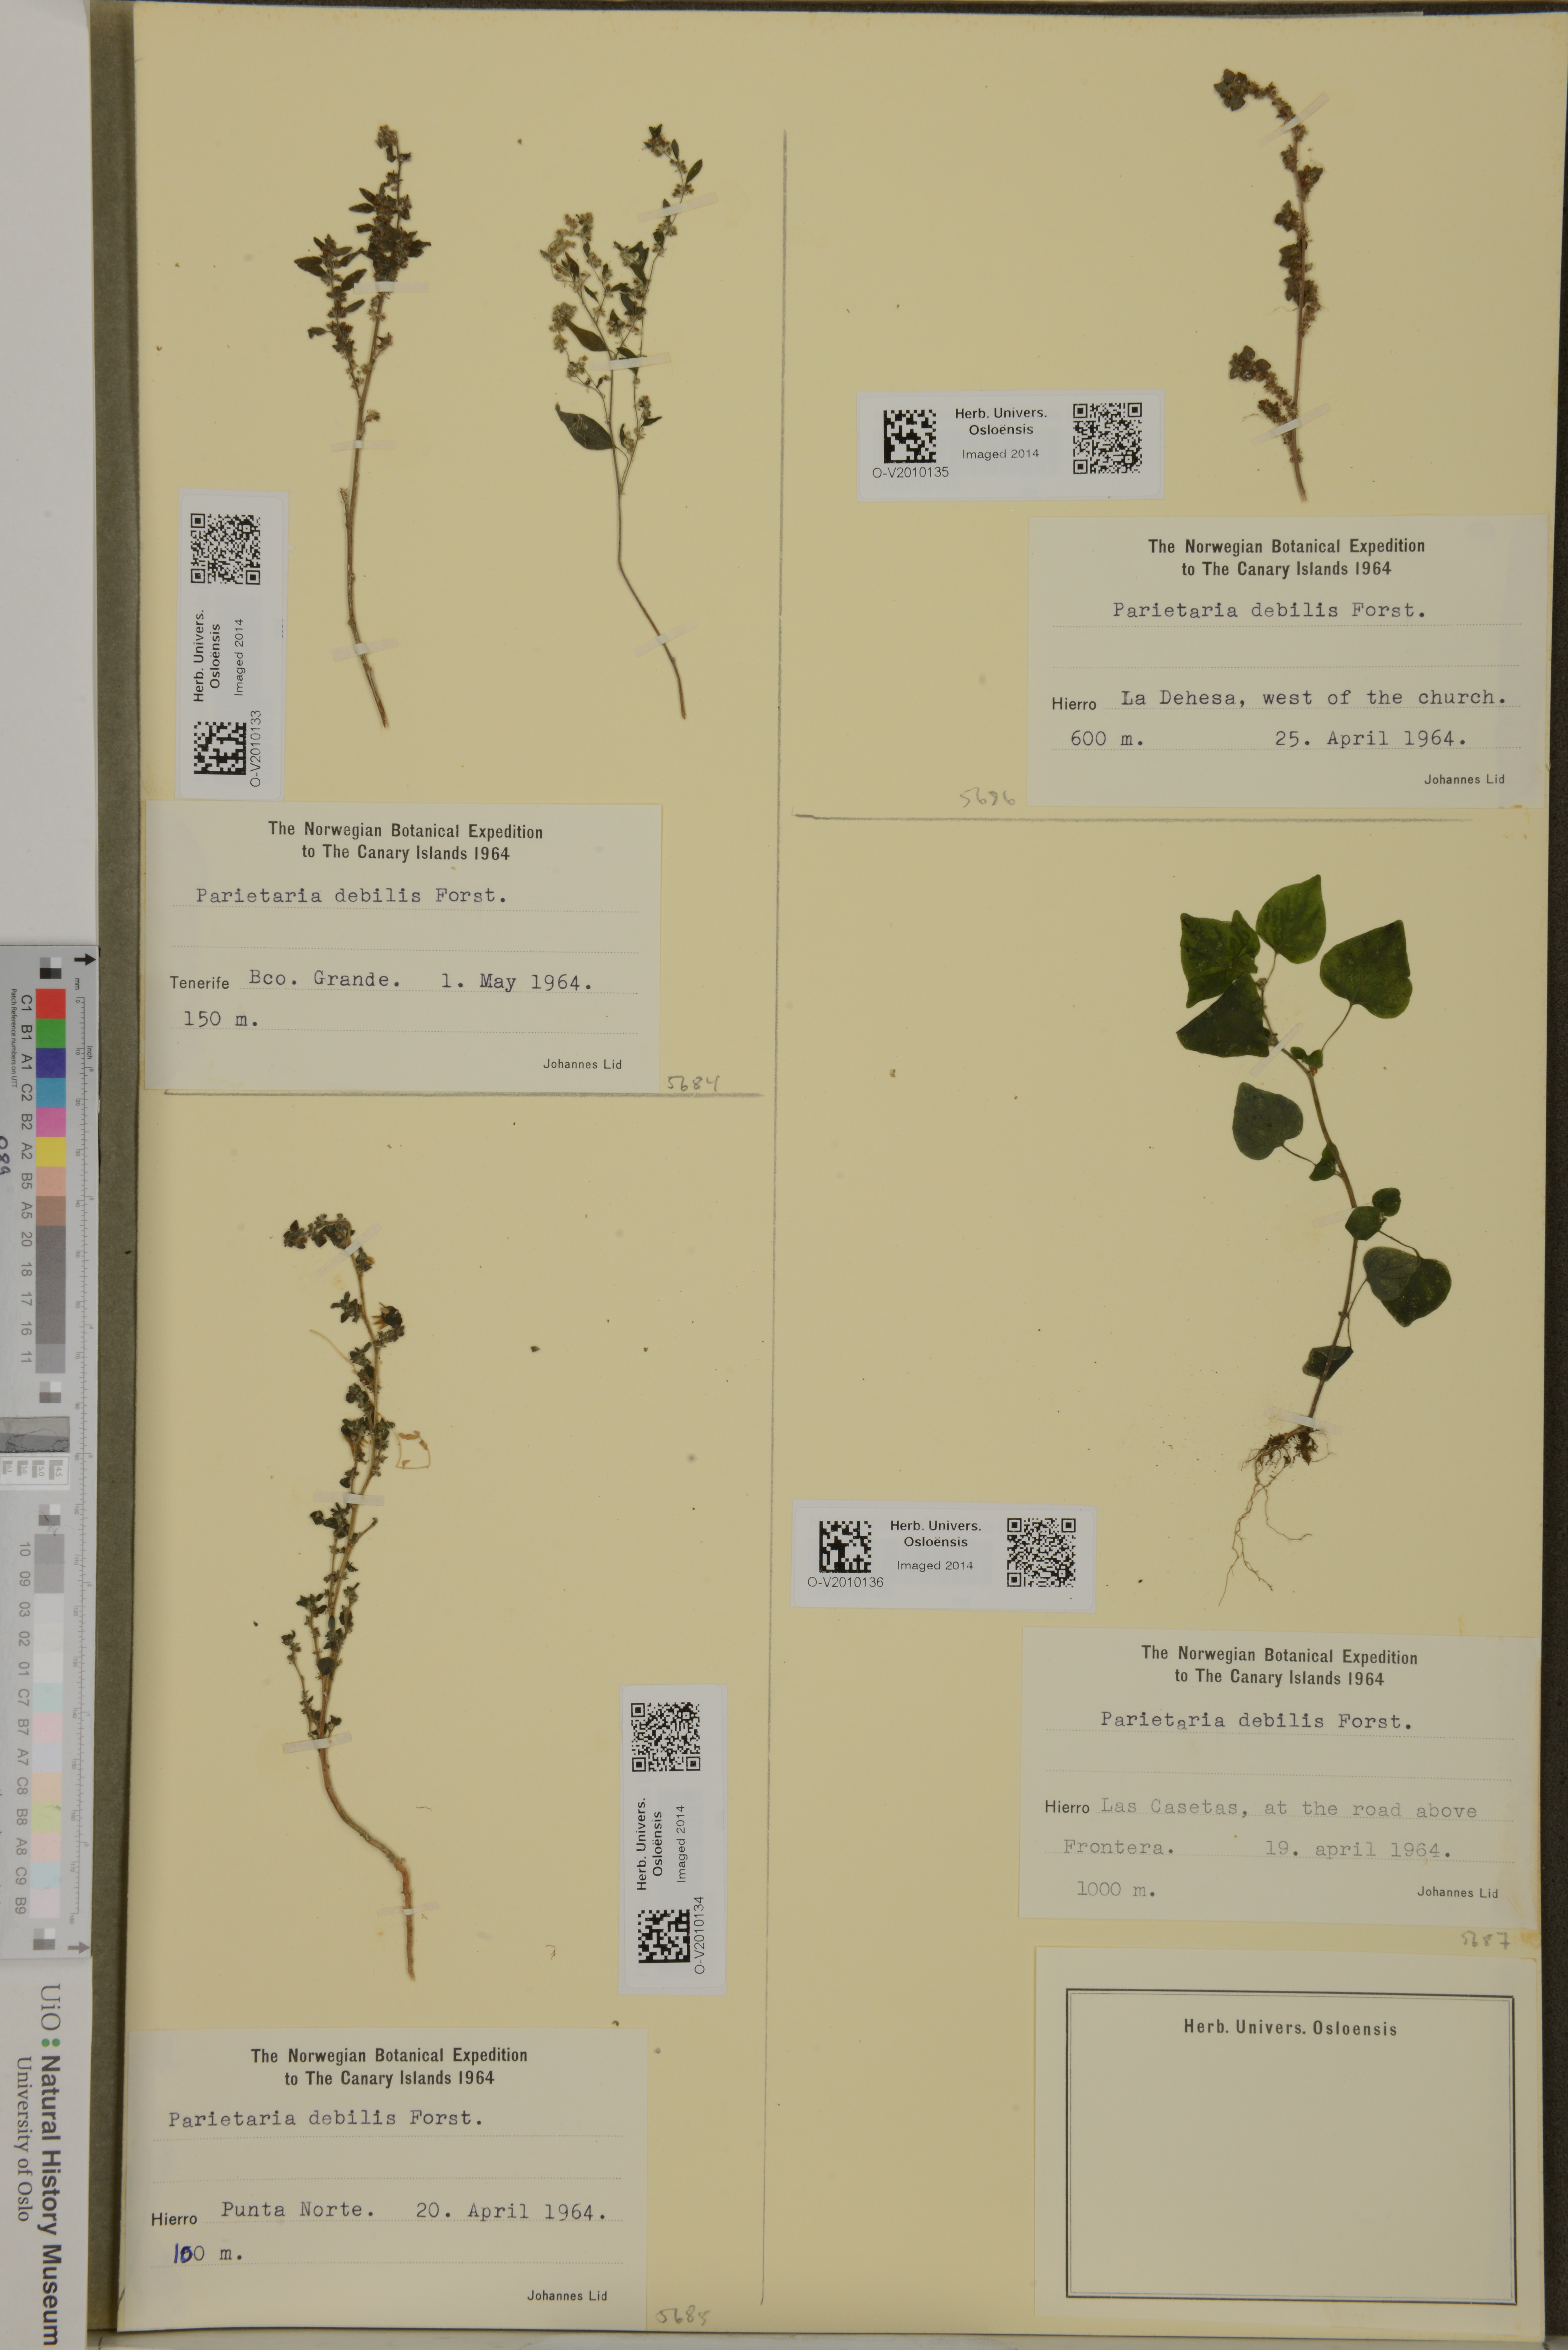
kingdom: Plantae
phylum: Tracheophyta
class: Magnoliopsida
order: Rosales
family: Urticaceae
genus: Parietaria
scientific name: Parietaria debilis
